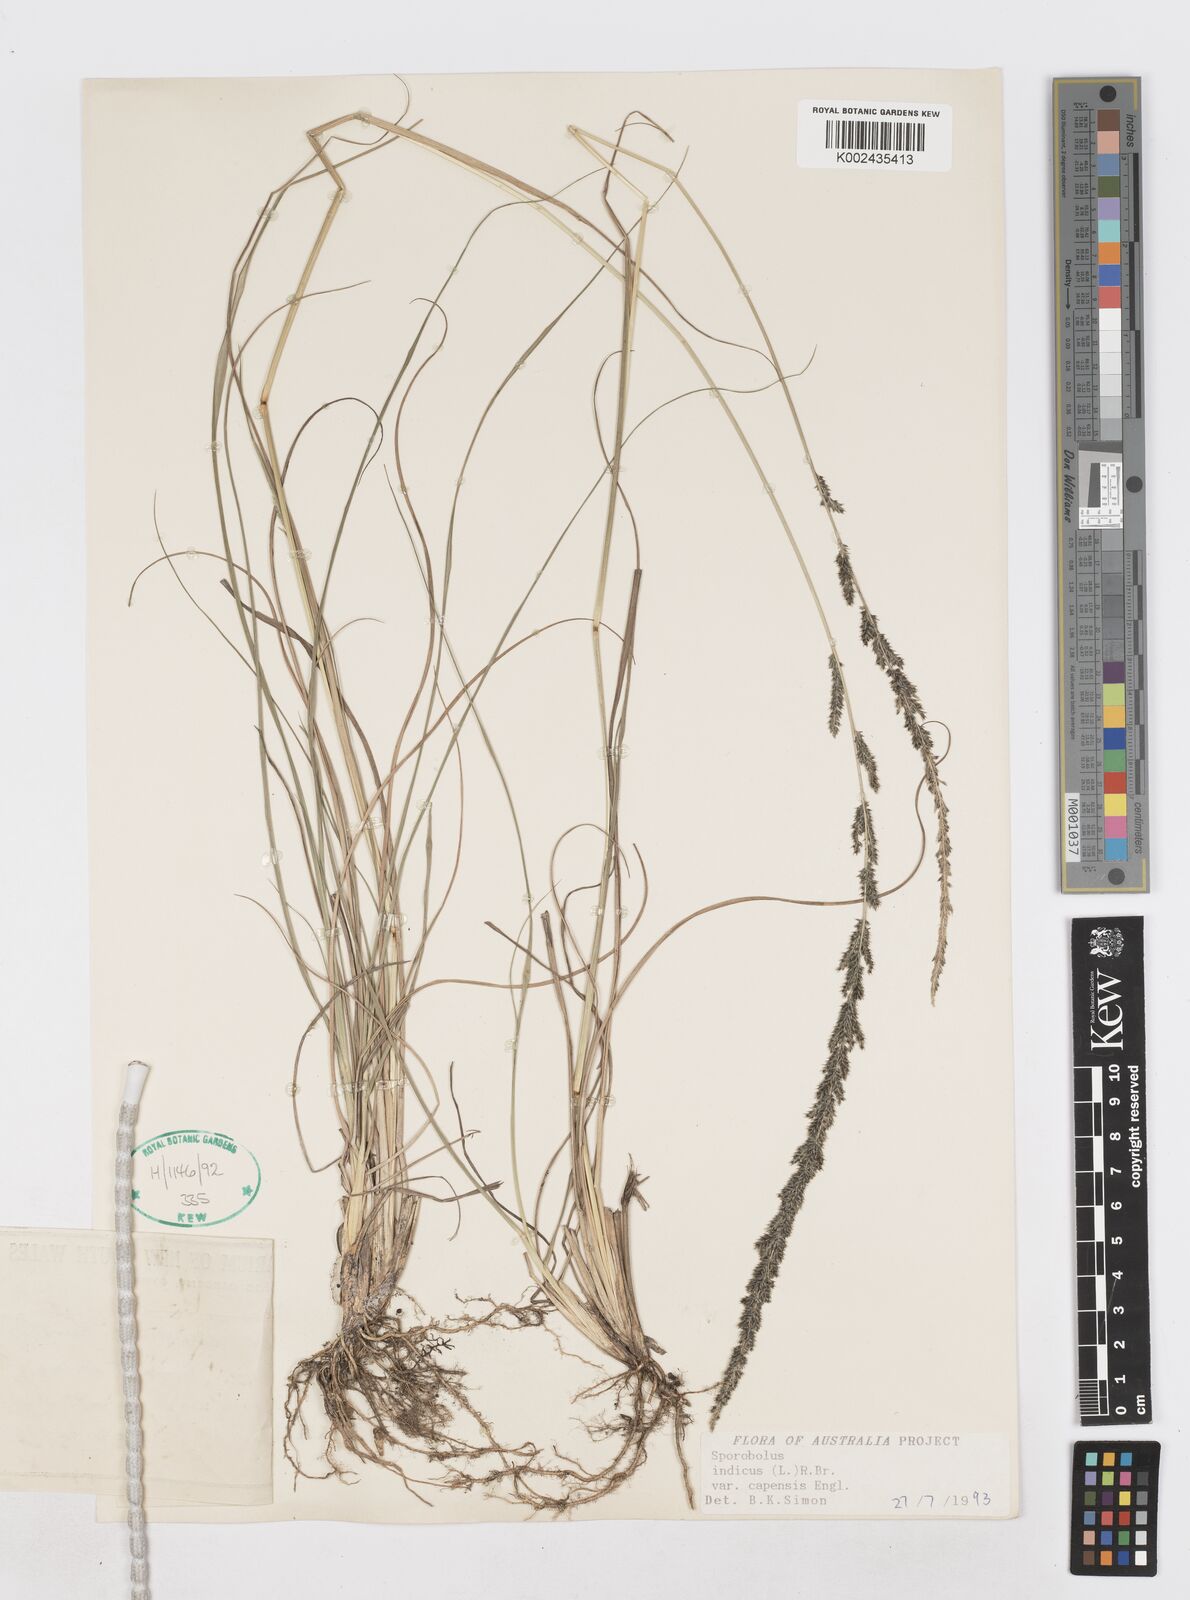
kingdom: Plantae
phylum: Tracheophyta
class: Liliopsida
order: Poales
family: Poaceae
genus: Sporobolus
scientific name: Sporobolus africanus
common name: African dropseed
